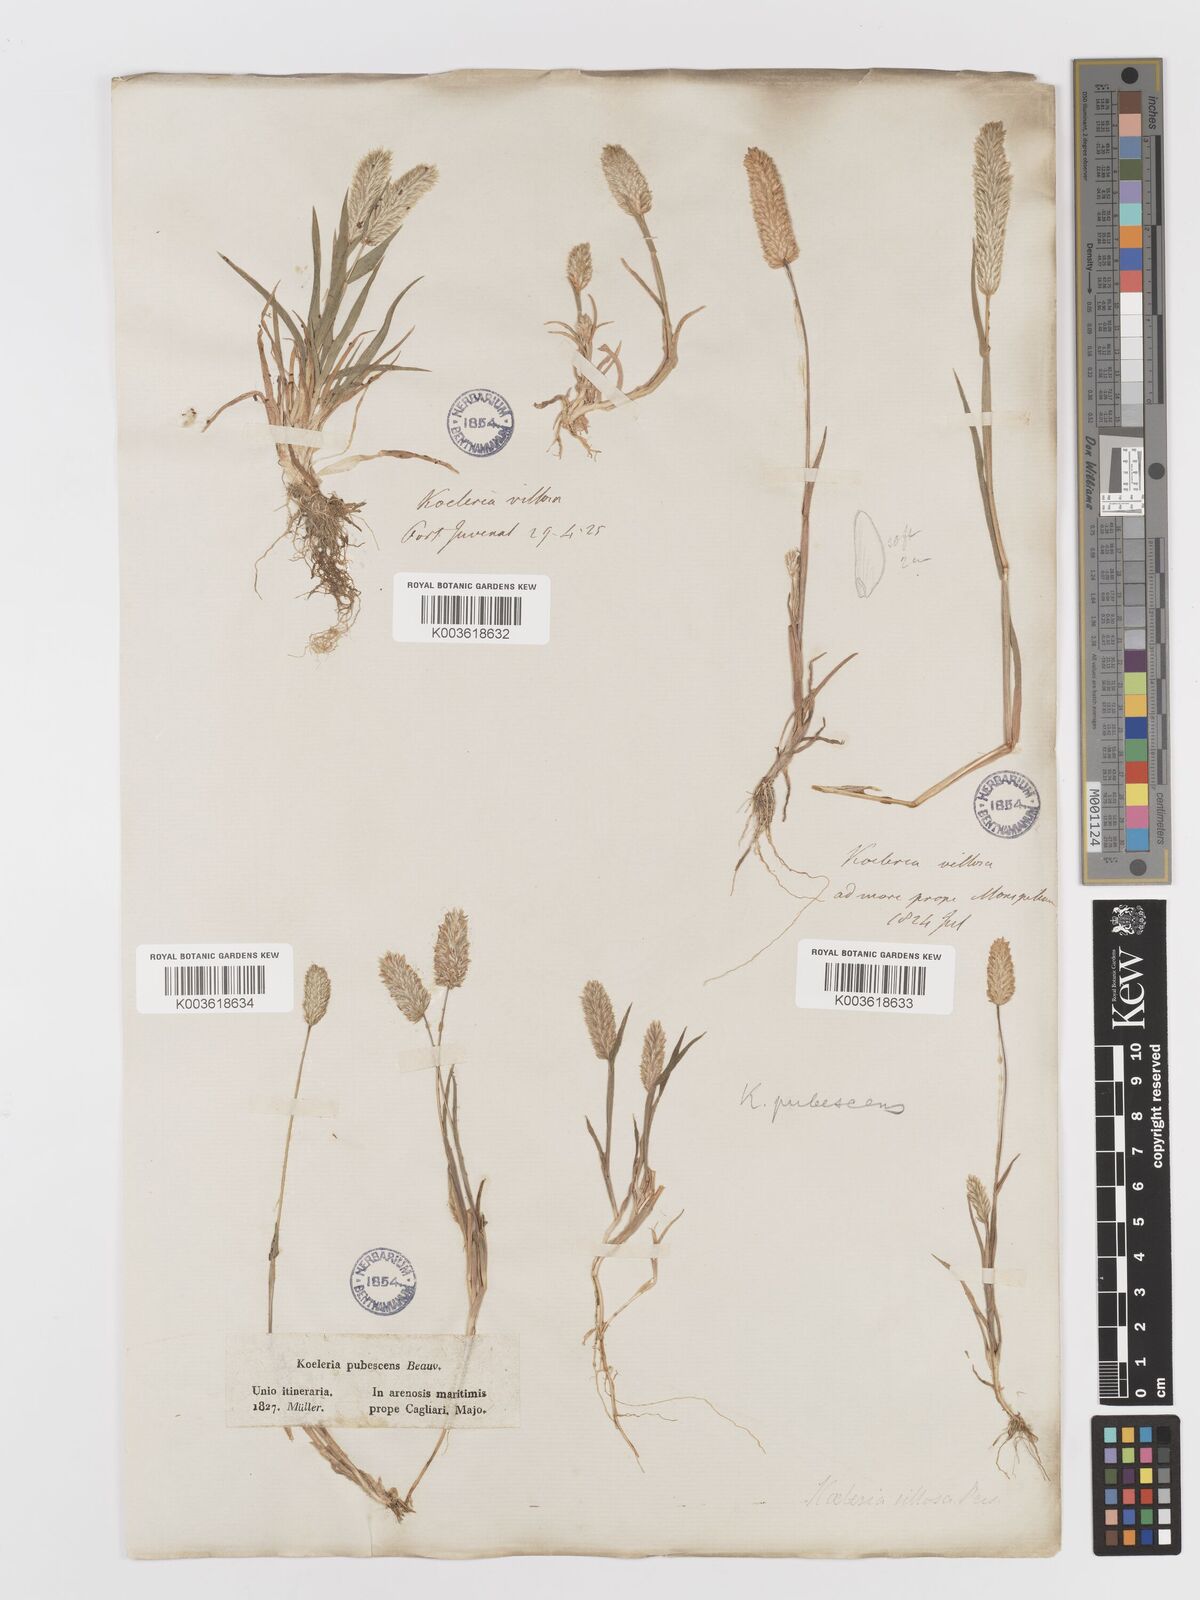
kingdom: Plantae
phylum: Tracheophyta
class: Liliopsida
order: Poales
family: Poaceae
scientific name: Poaceae
